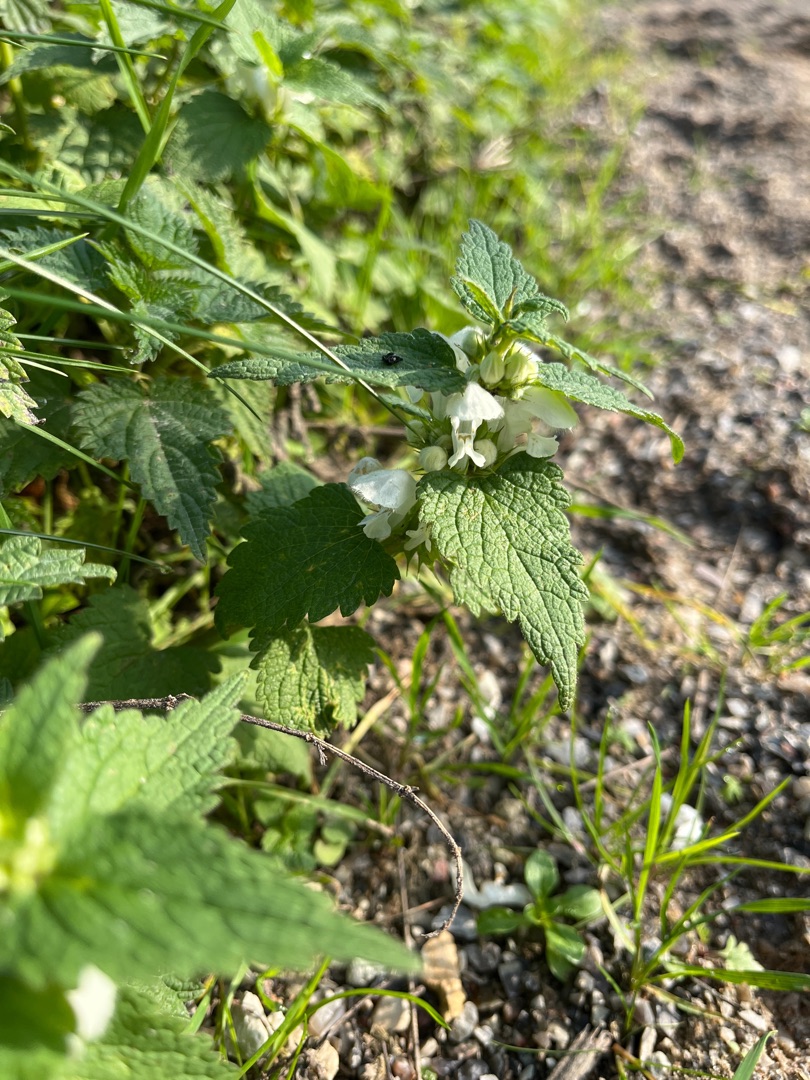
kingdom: Plantae
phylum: Tracheophyta
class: Magnoliopsida
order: Lamiales
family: Lamiaceae
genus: Lamium
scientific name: Lamium album
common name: Døvnælde
